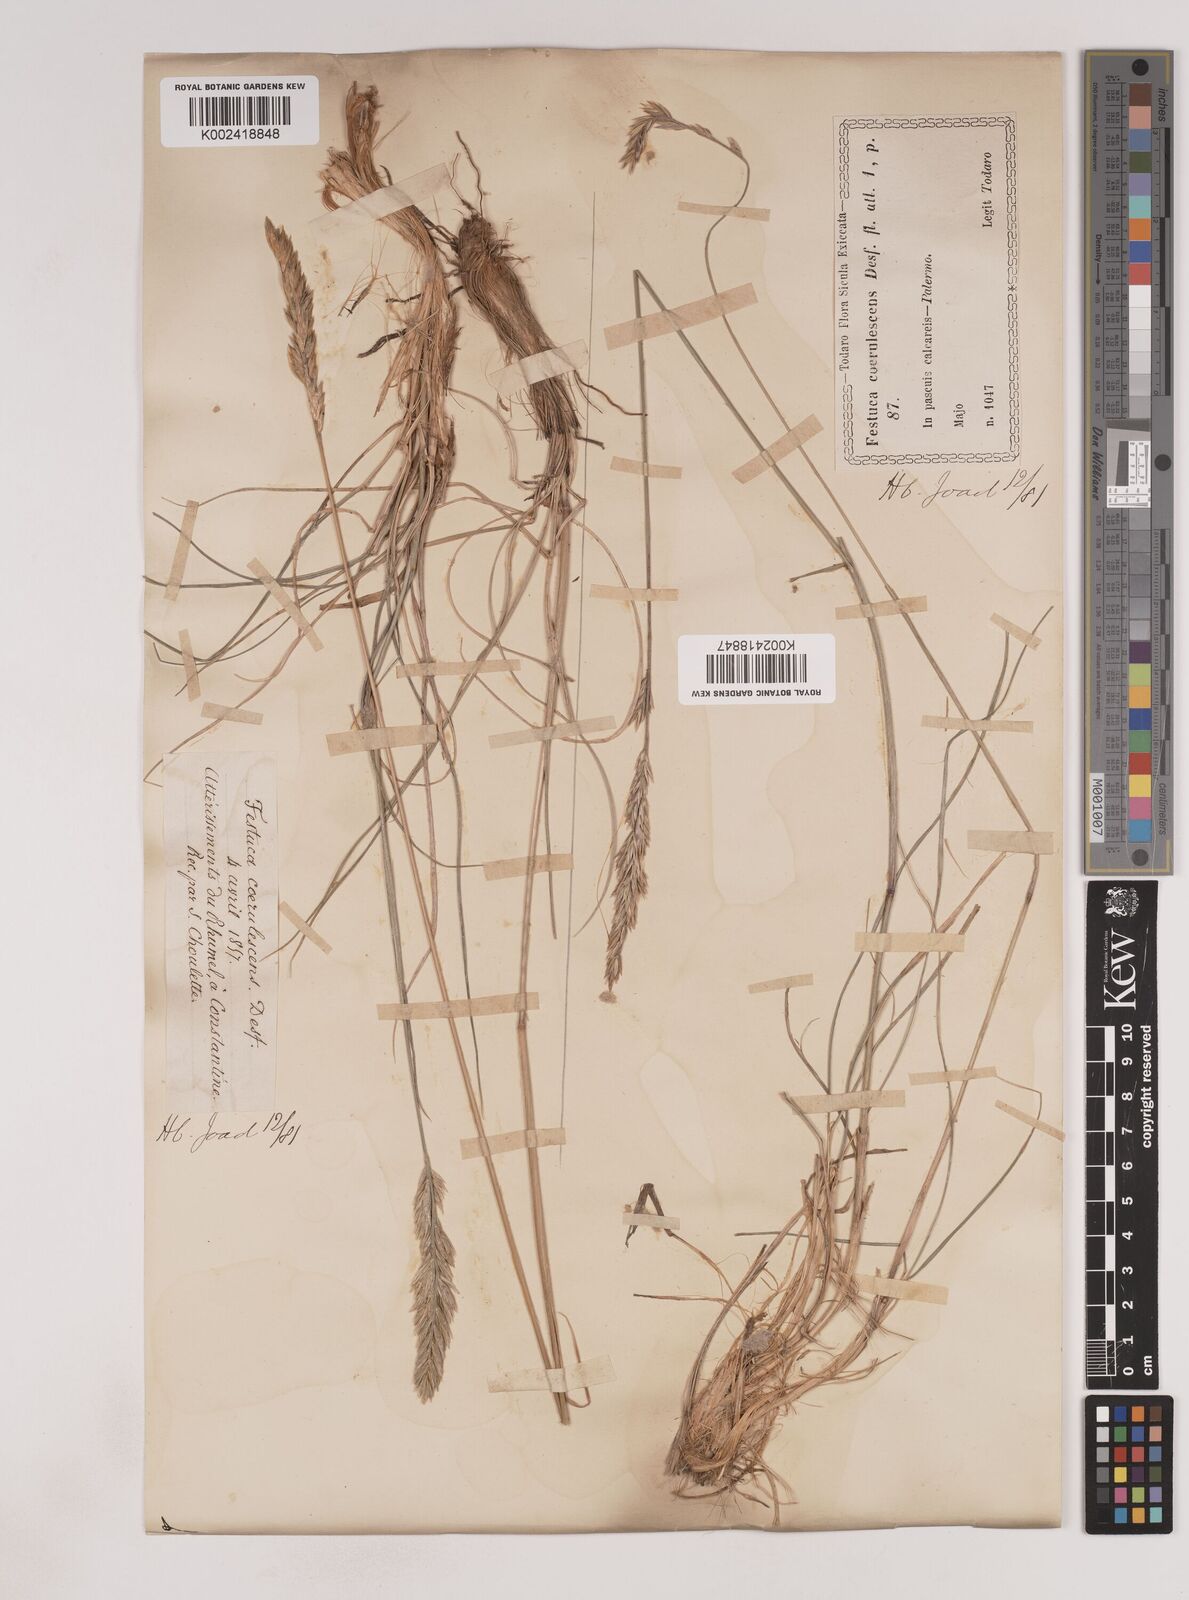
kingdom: Plantae
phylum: Tracheophyta
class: Liliopsida
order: Poales
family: Poaceae
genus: Patzkea
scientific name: Patzkea paniculata
